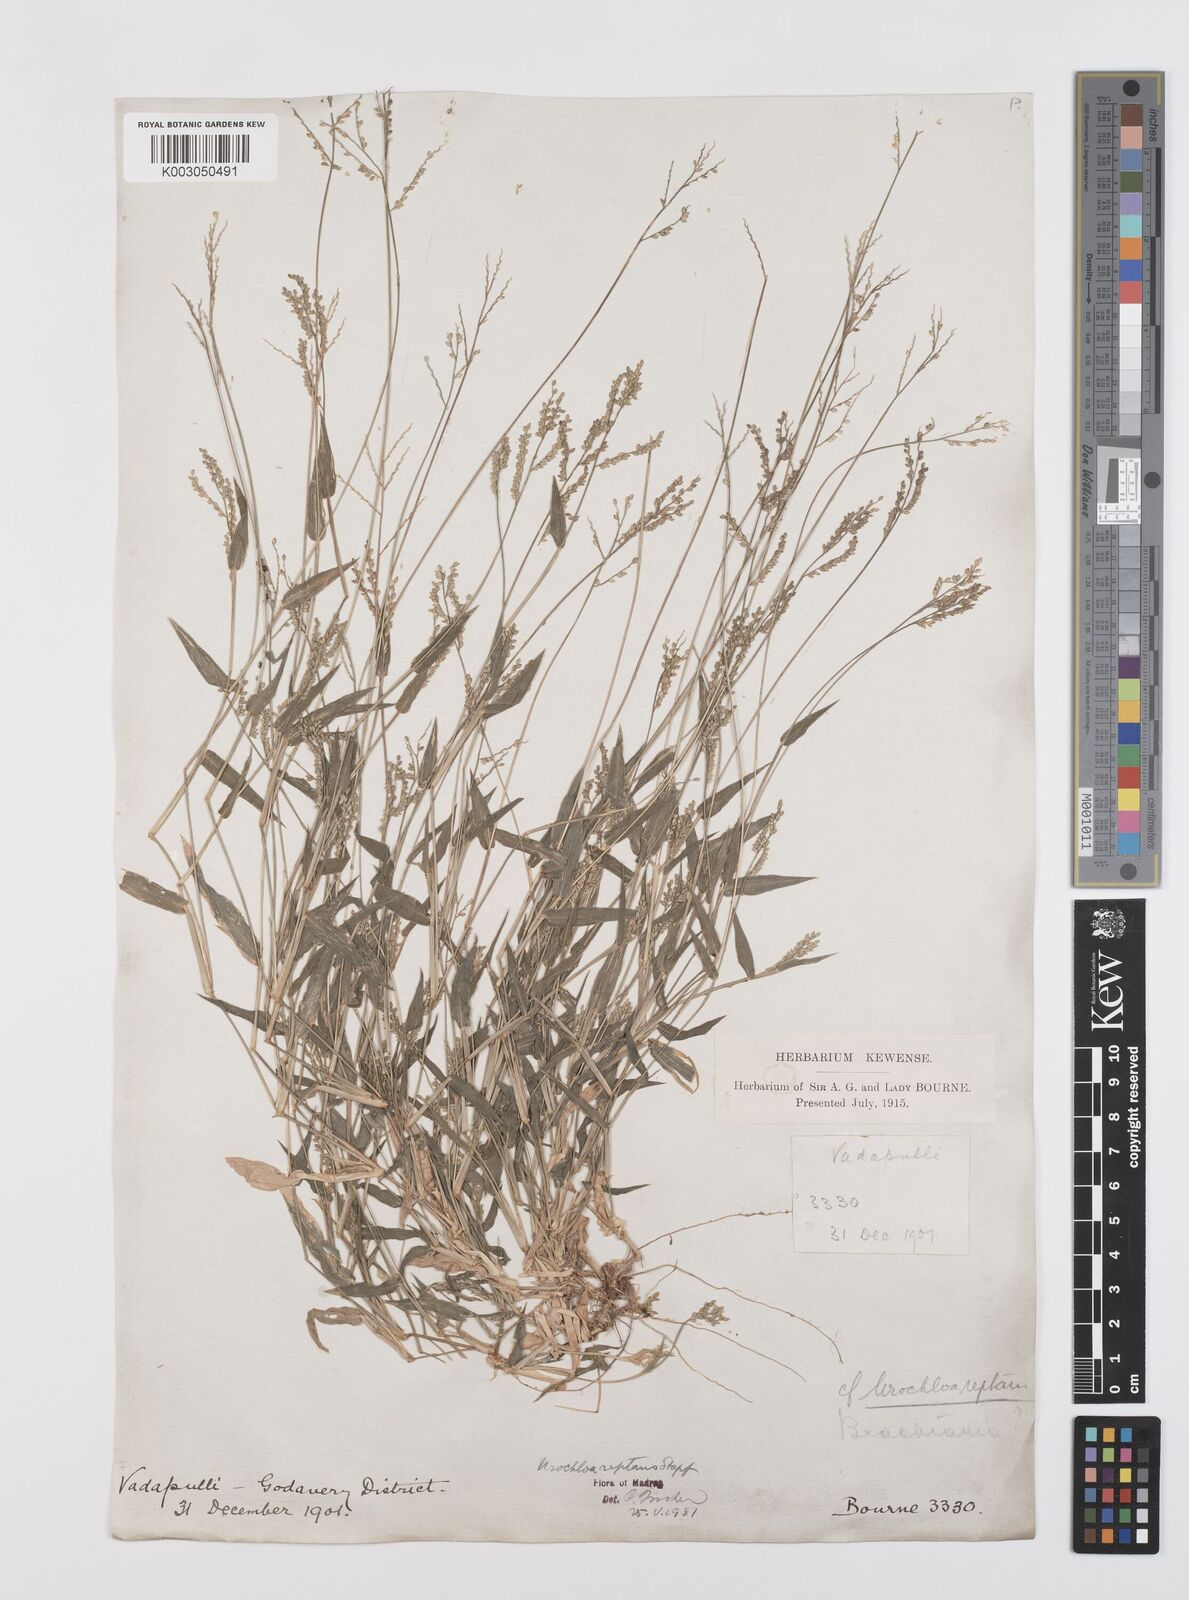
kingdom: Plantae
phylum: Tracheophyta
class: Liliopsida
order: Poales
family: Poaceae
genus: Urochloa
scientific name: Urochloa reptans
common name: Sprawling signalgrass
